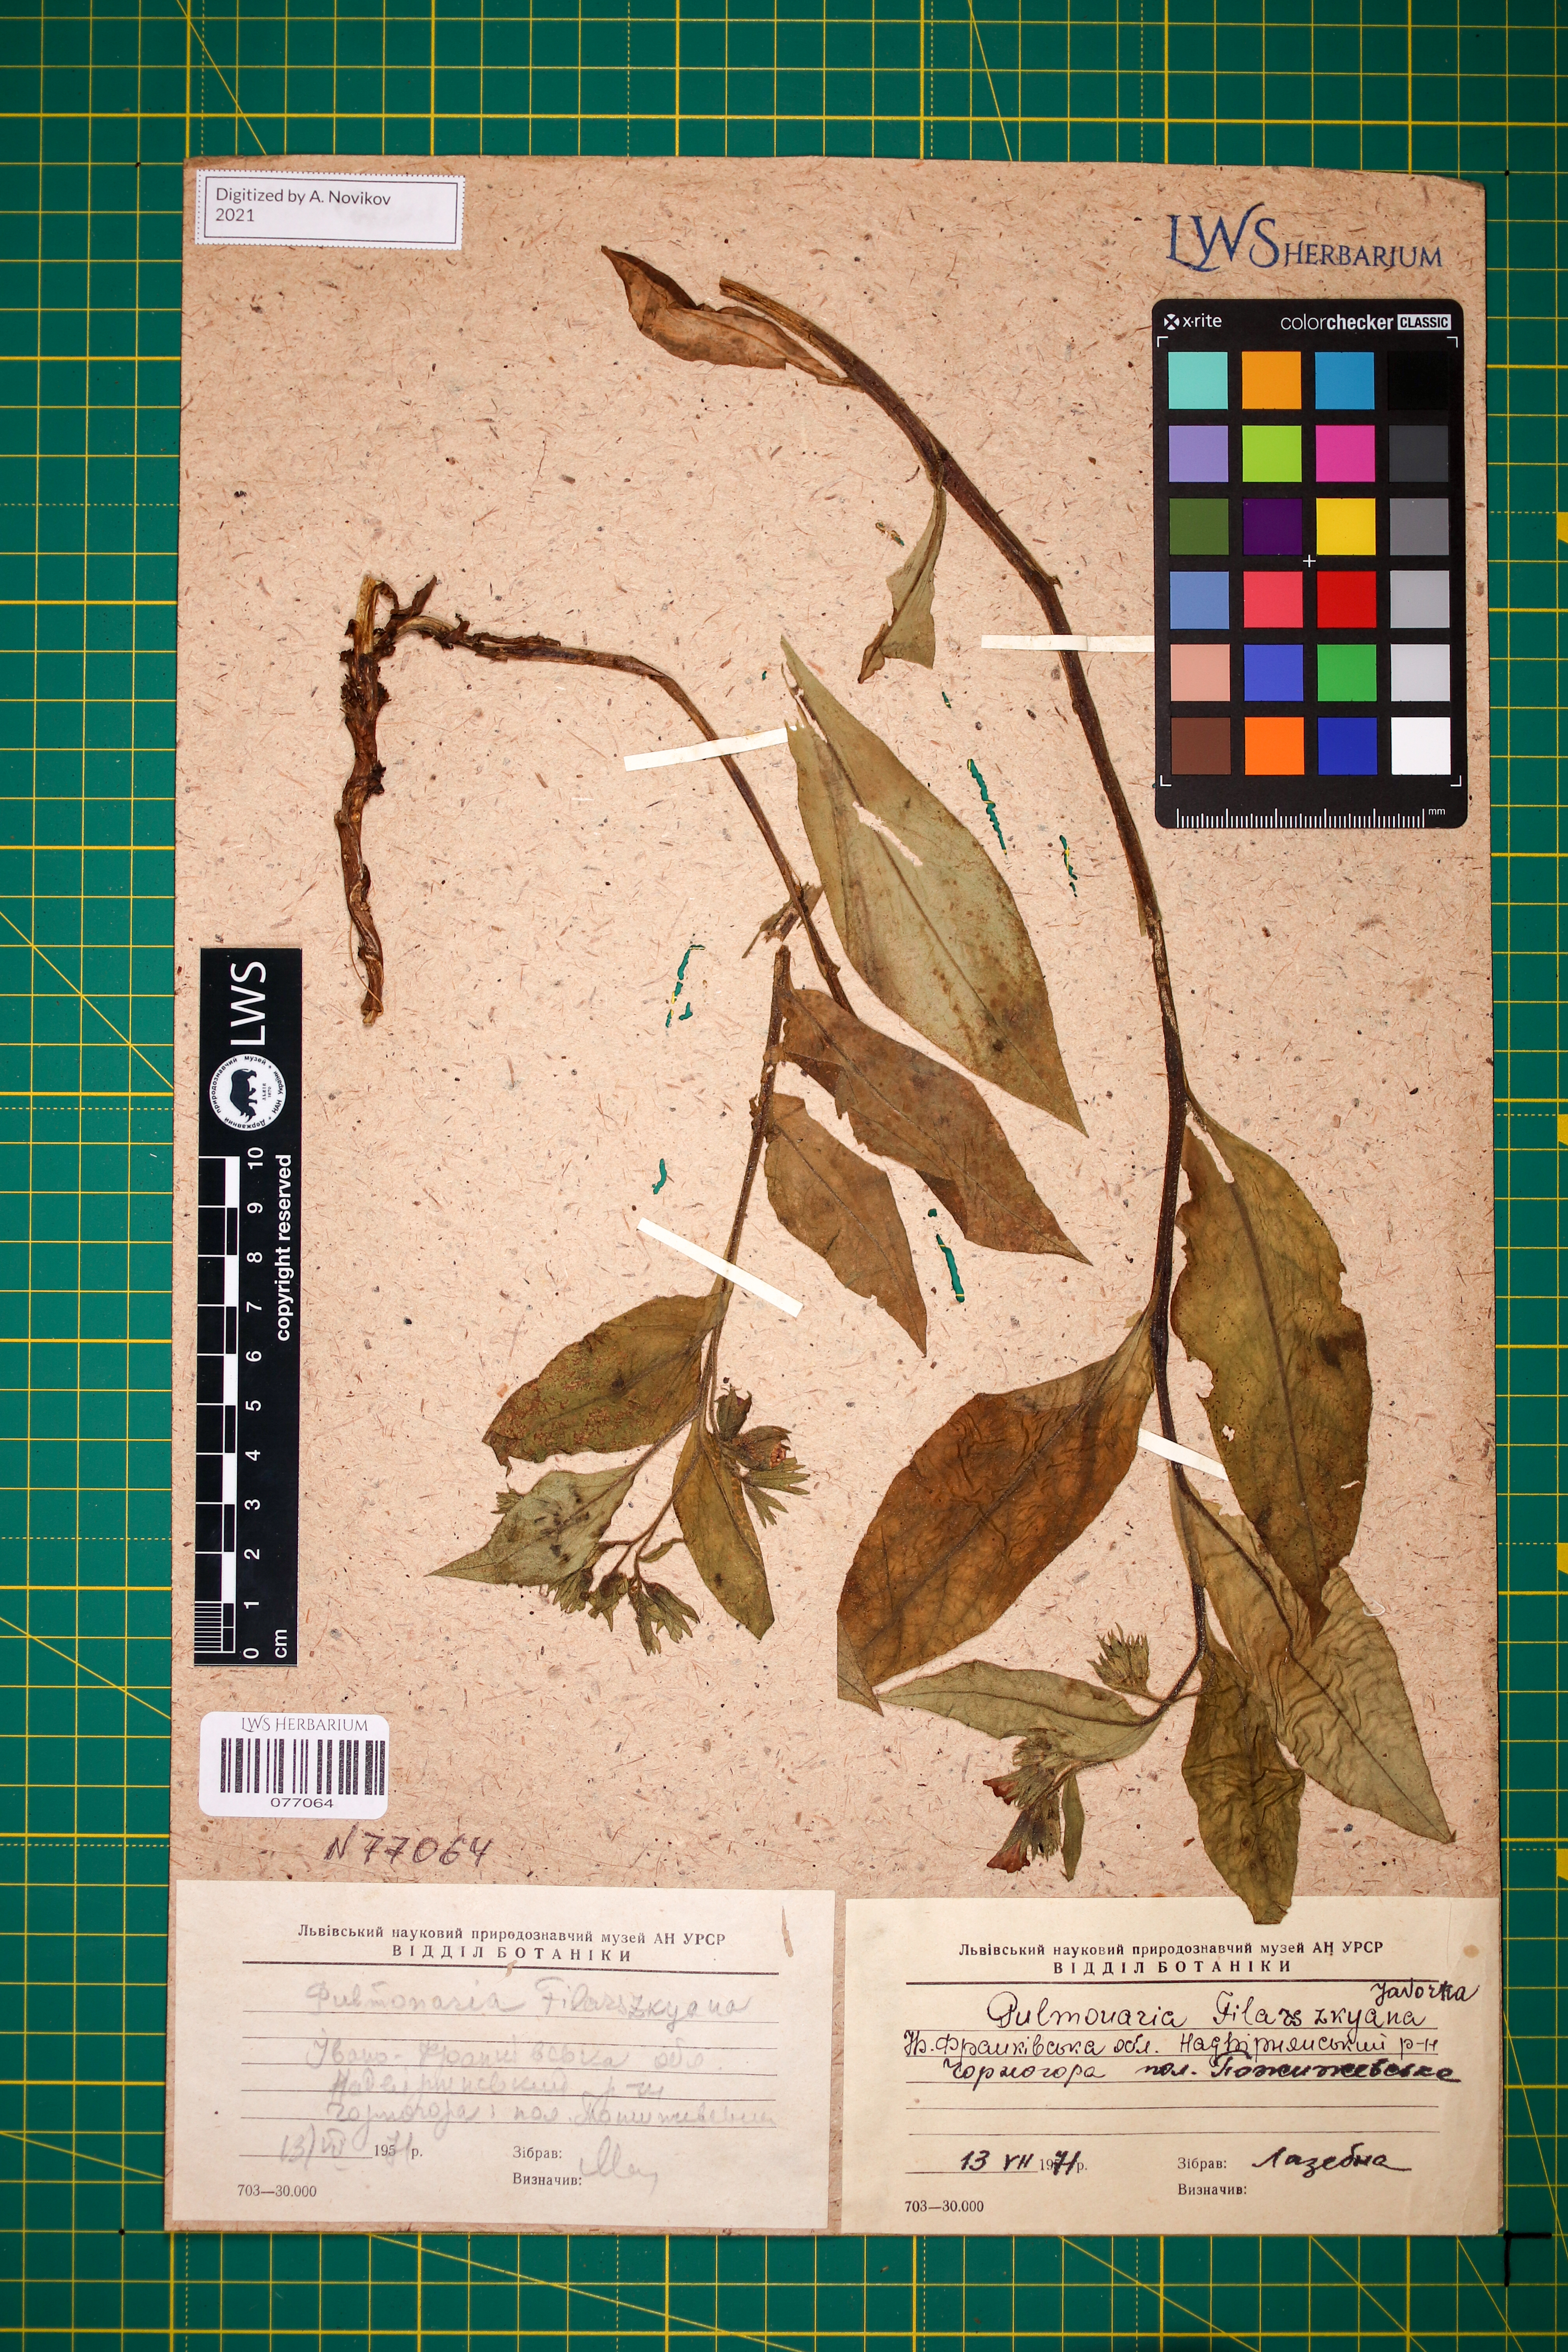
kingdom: Plantae
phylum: Tracheophyta
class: Magnoliopsida
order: Boraginales
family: Boraginaceae
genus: Pulmonaria
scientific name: Pulmonaria filarszkyana
